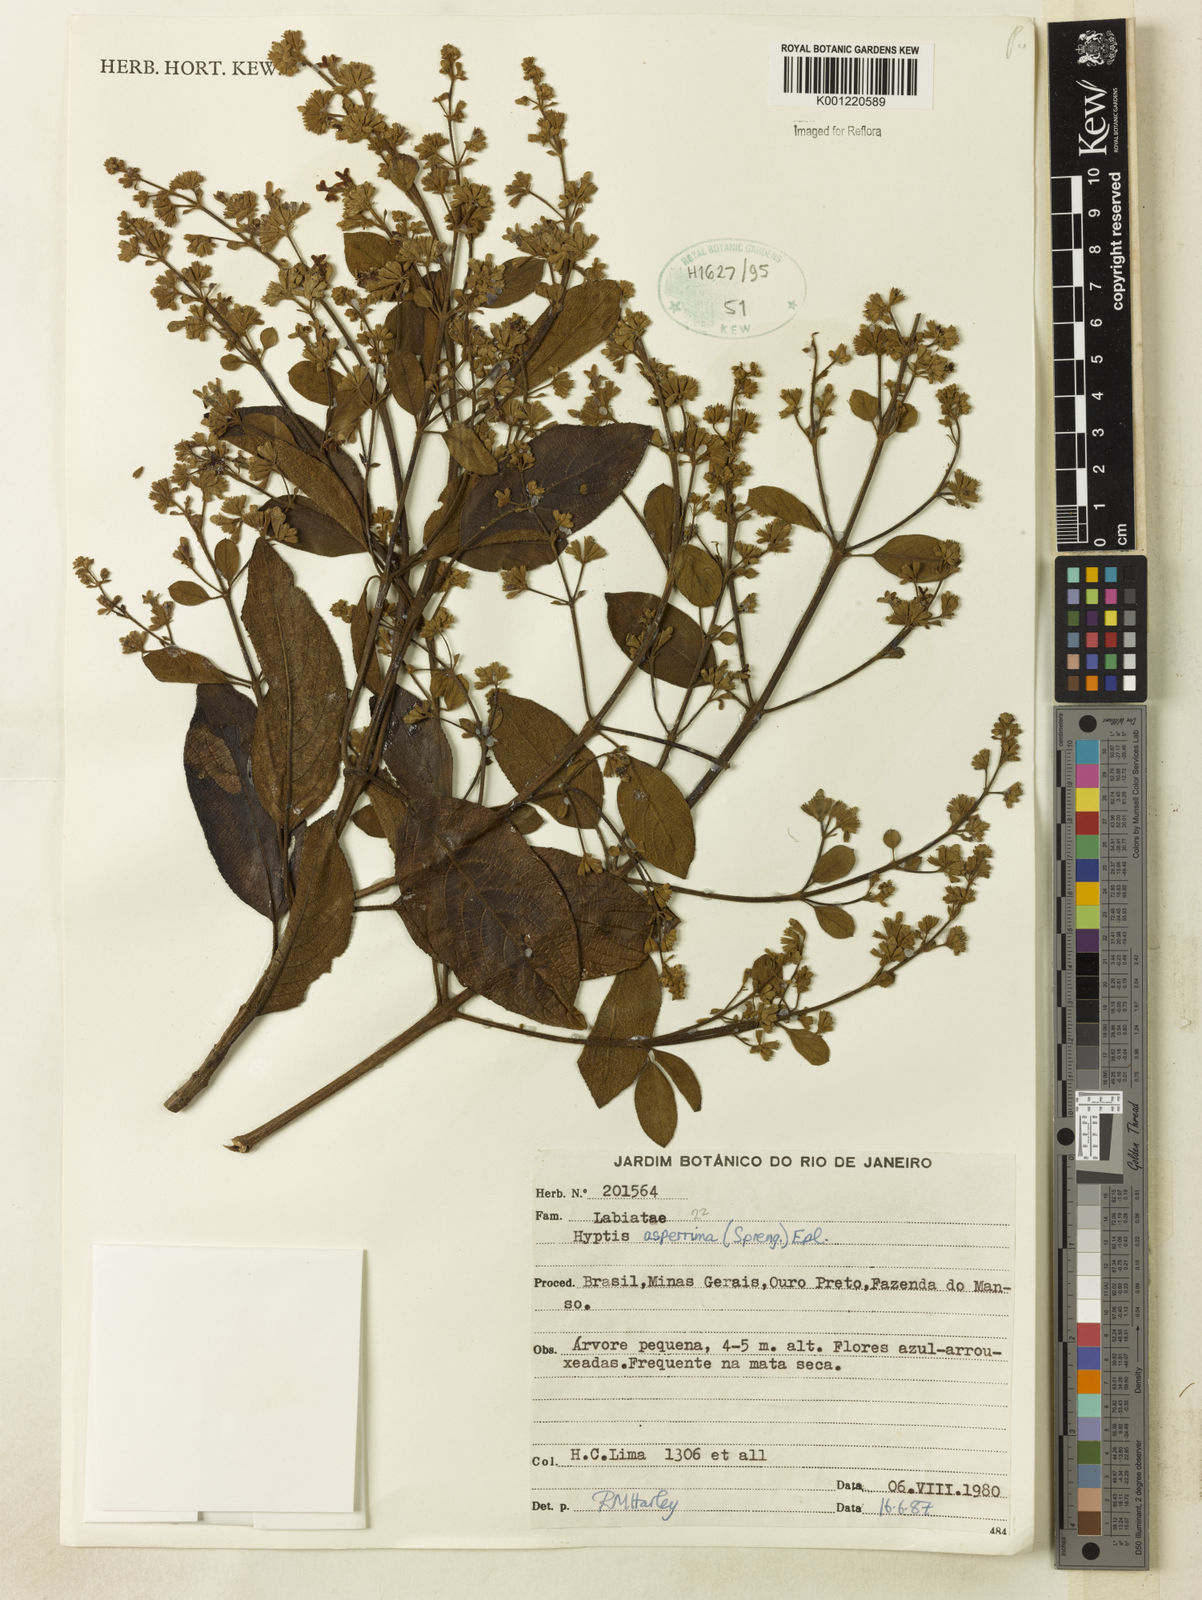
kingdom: Plantae
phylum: Tracheophyta
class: Magnoliopsida
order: Lamiales
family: Lamiaceae
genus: Hyptidendron
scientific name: Hyptidendron asperrimum
